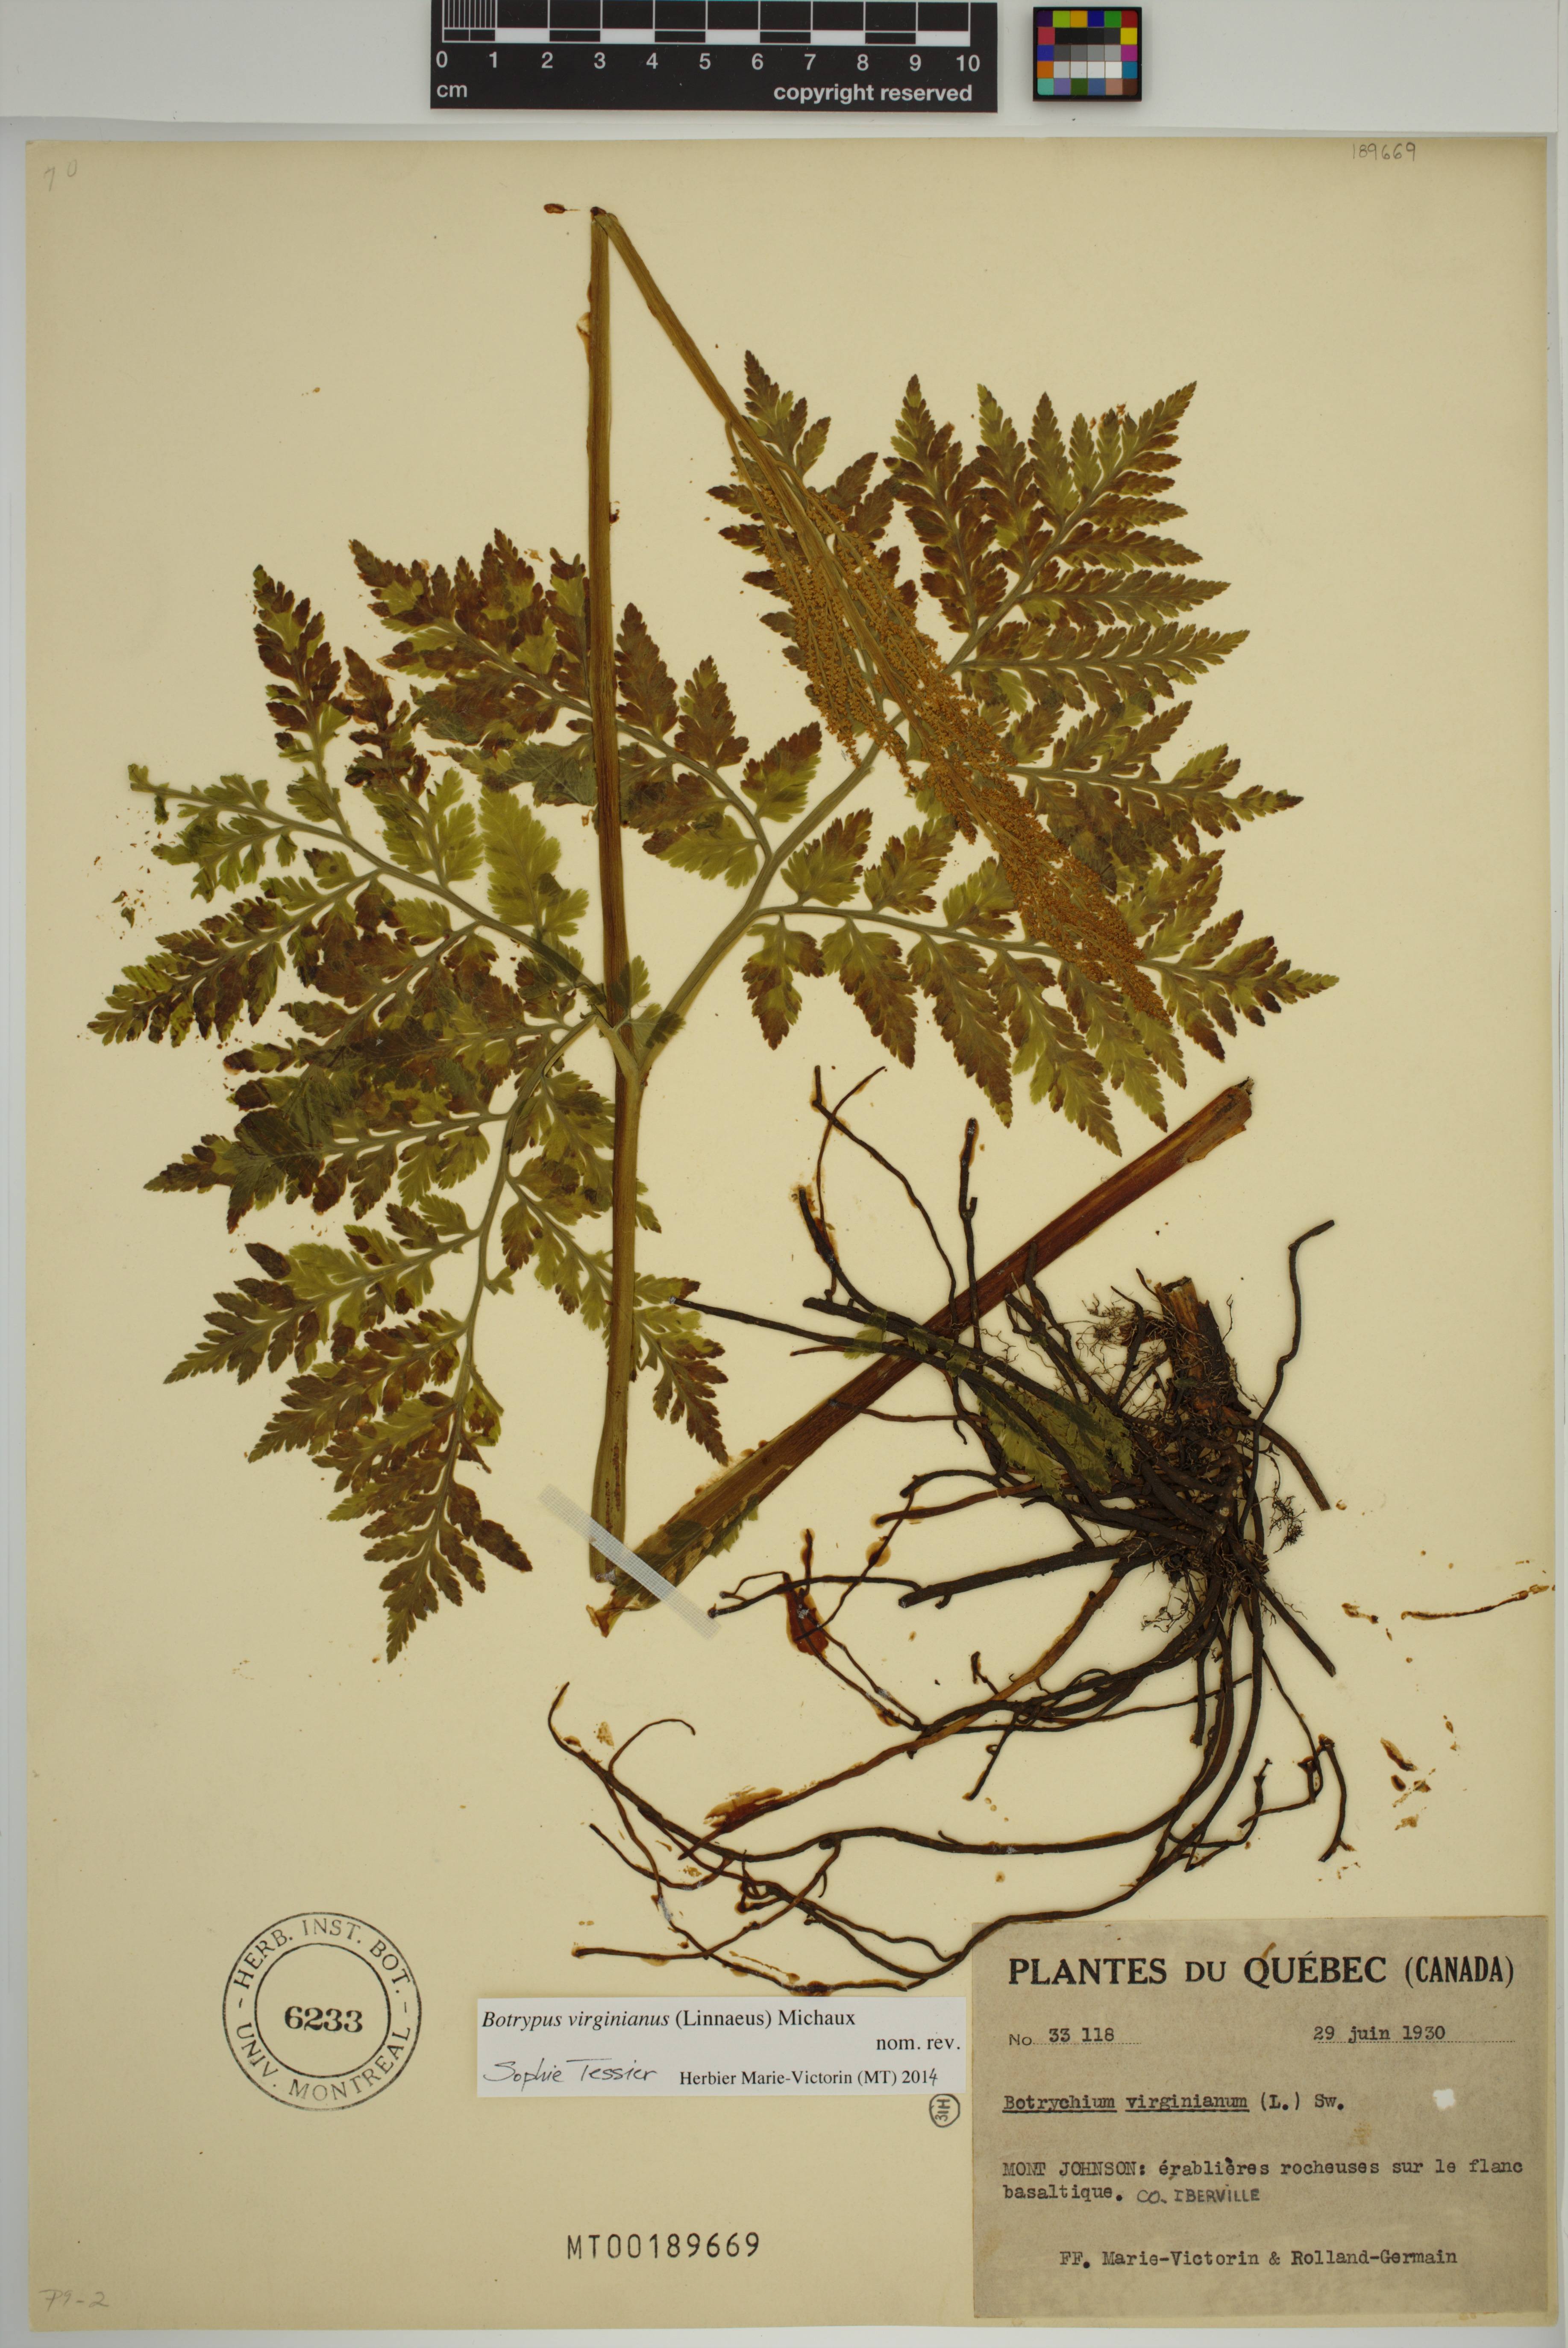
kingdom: Plantae
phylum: Tracheophyta
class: Polypodiopsida
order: Ophioglossales
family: Ophioglossaceae
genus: Botrypus
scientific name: Botrypus virginianus
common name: Common grapefern
